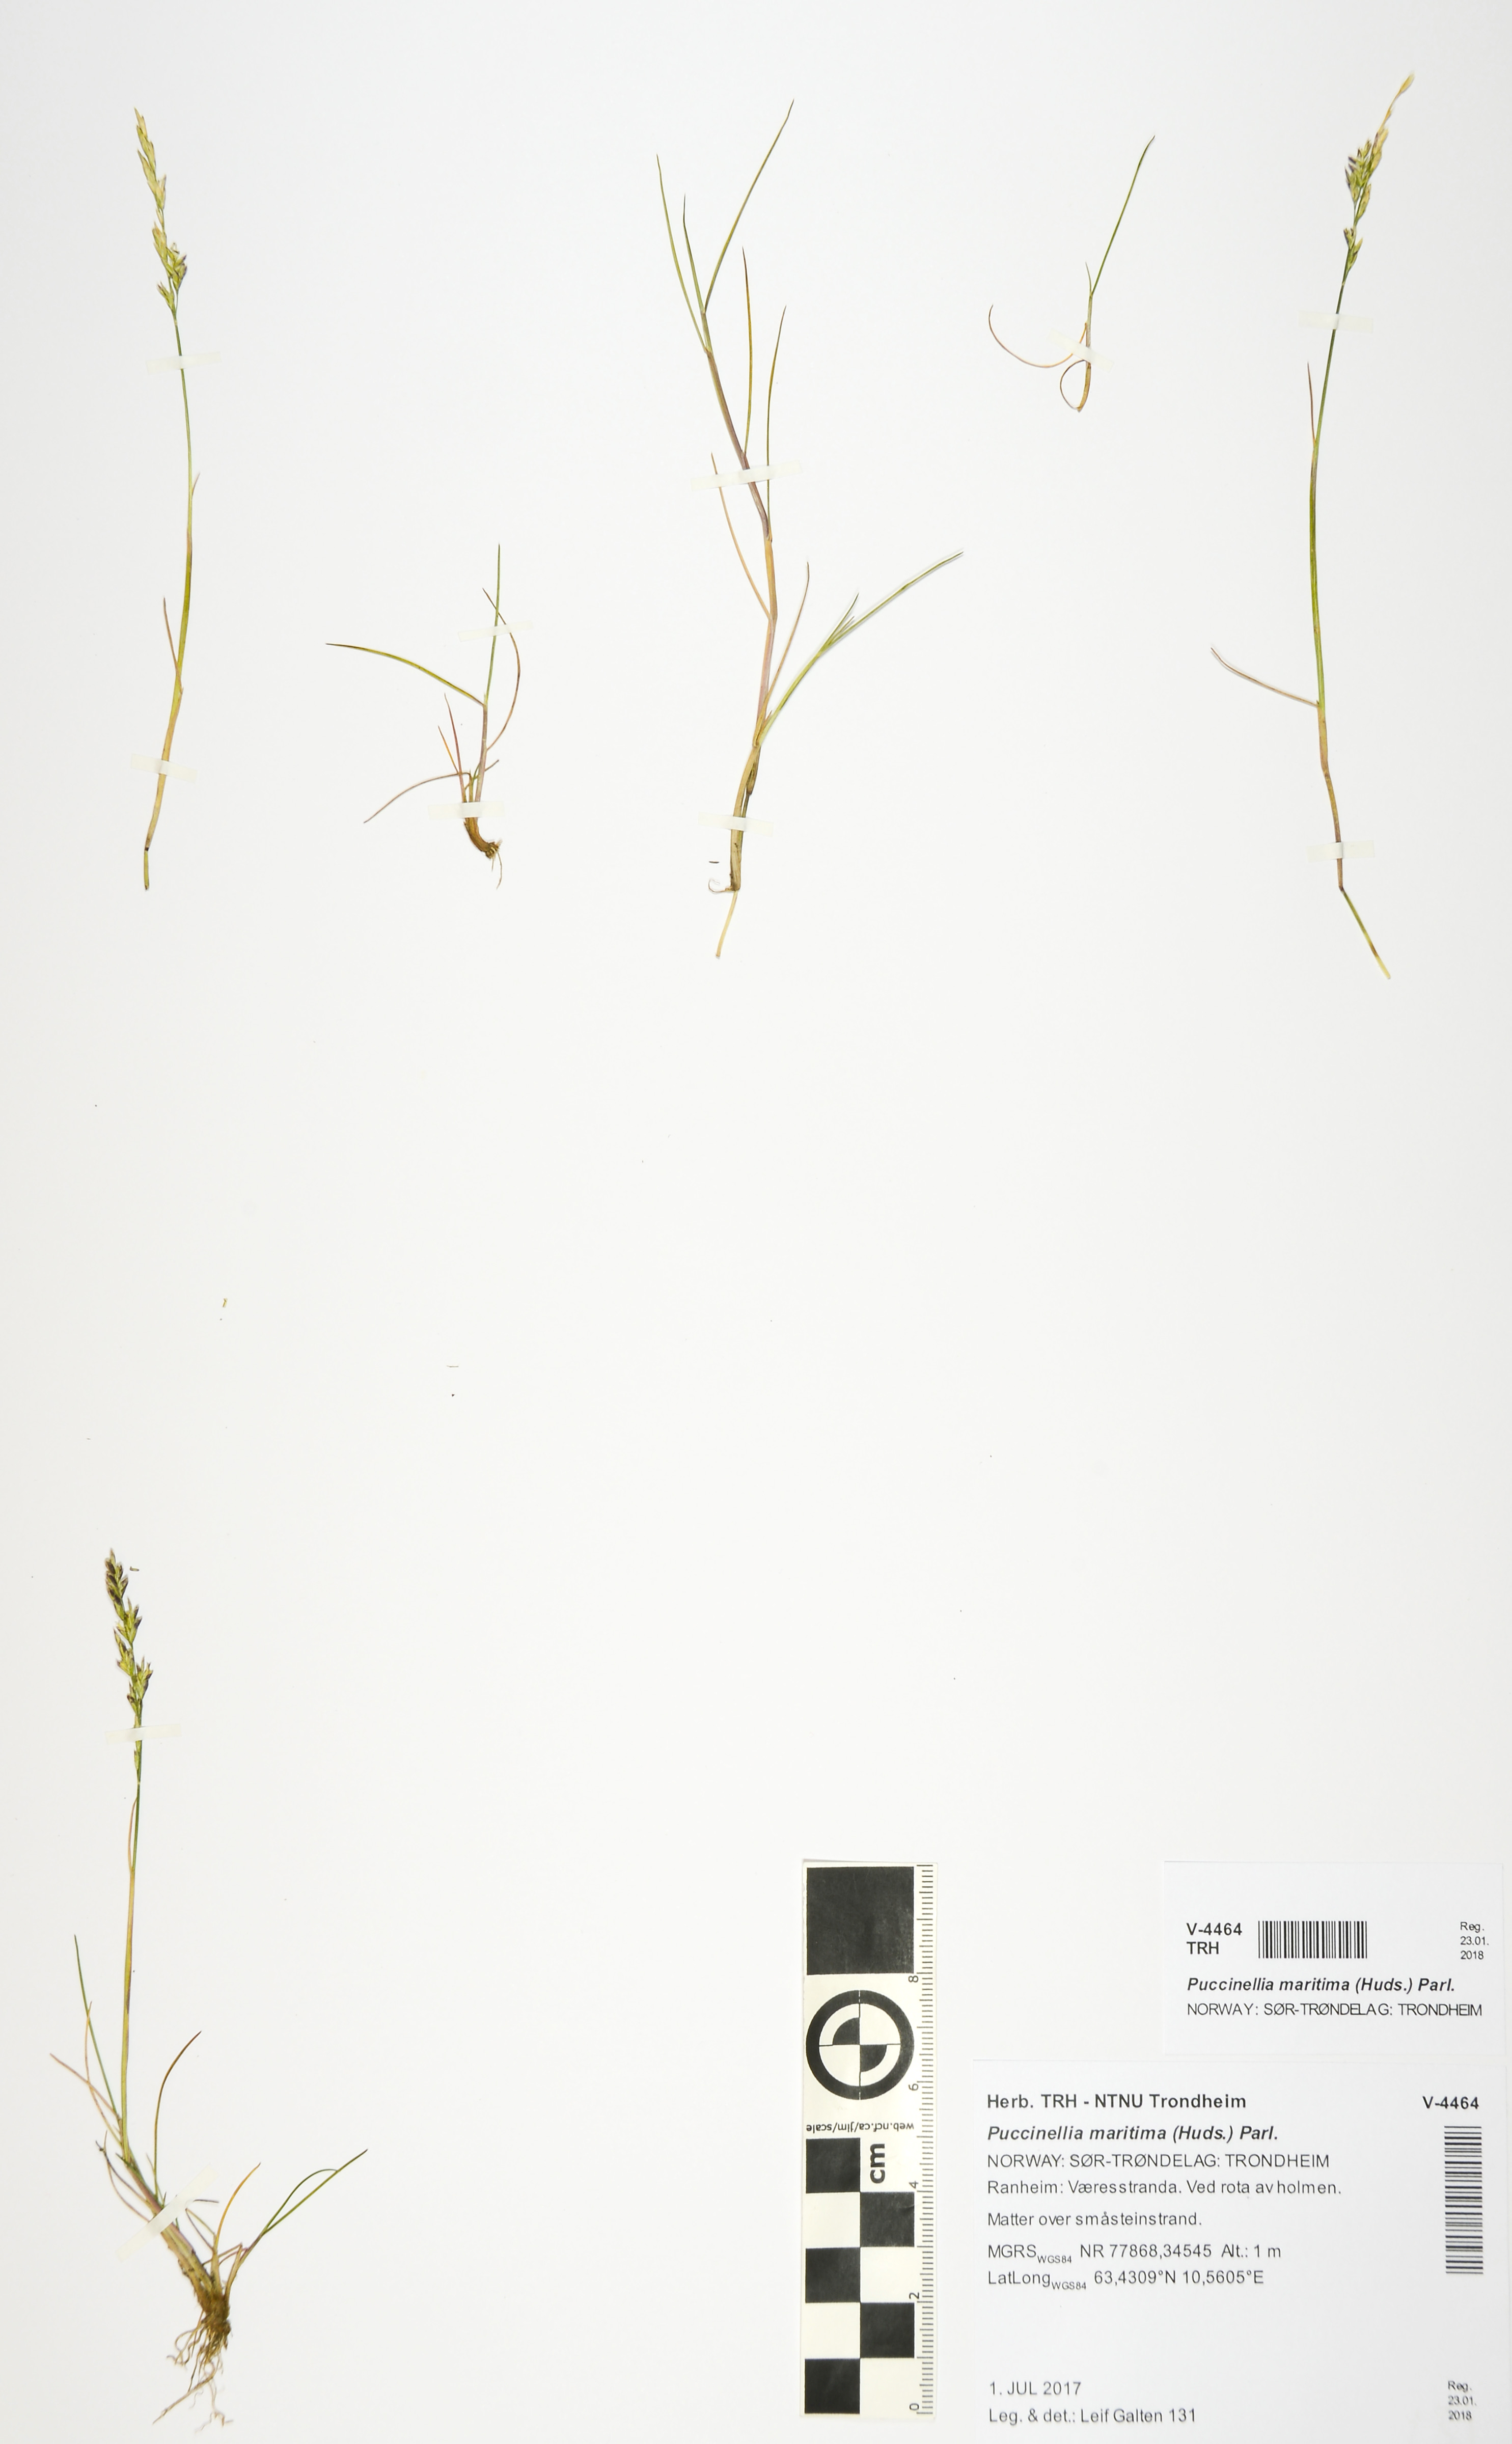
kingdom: Plantae
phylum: Tracheophyta
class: Liliopsida
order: Poales
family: Poaceae
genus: Puccinellia
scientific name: Puccinellia maritima
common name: Common saltmarsh grass
